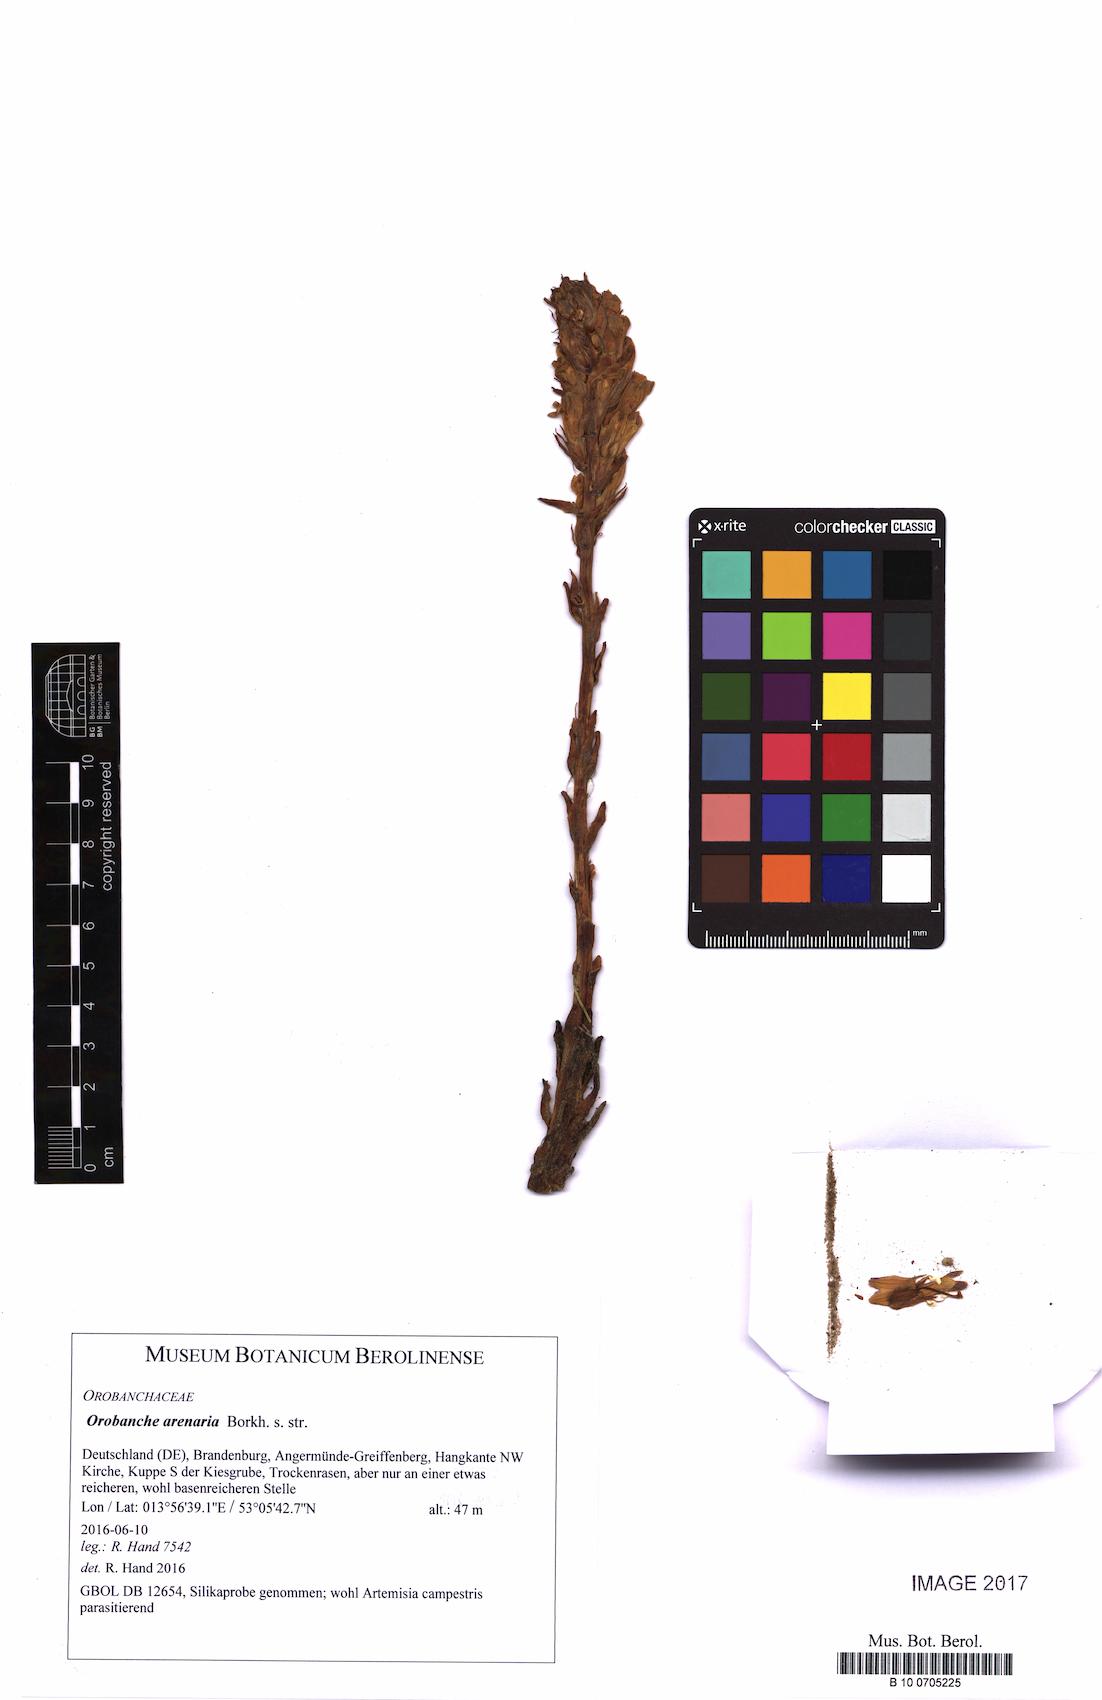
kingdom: Plantae
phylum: Tracheophyta
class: Magnoliopsida
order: Lamiales
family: Orobanchaceae
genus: Phelipanche
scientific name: Phelipanche arenaria
